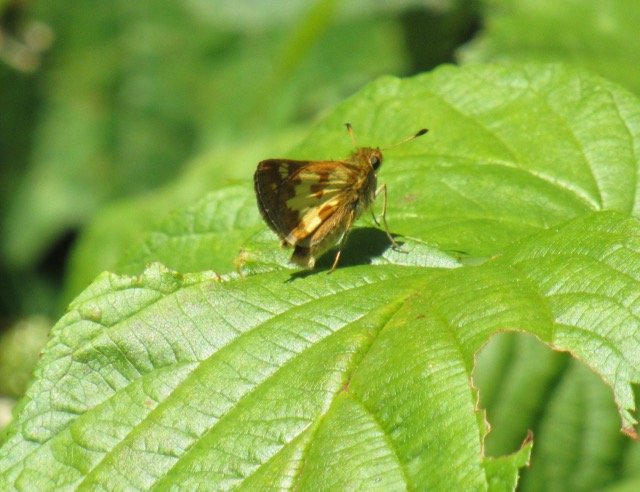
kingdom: Animalia
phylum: Arthropoda
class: Insecta
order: Lepidoptera
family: Hesperiidae
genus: Polites
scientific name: Polites coras
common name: Peck's Skipper
